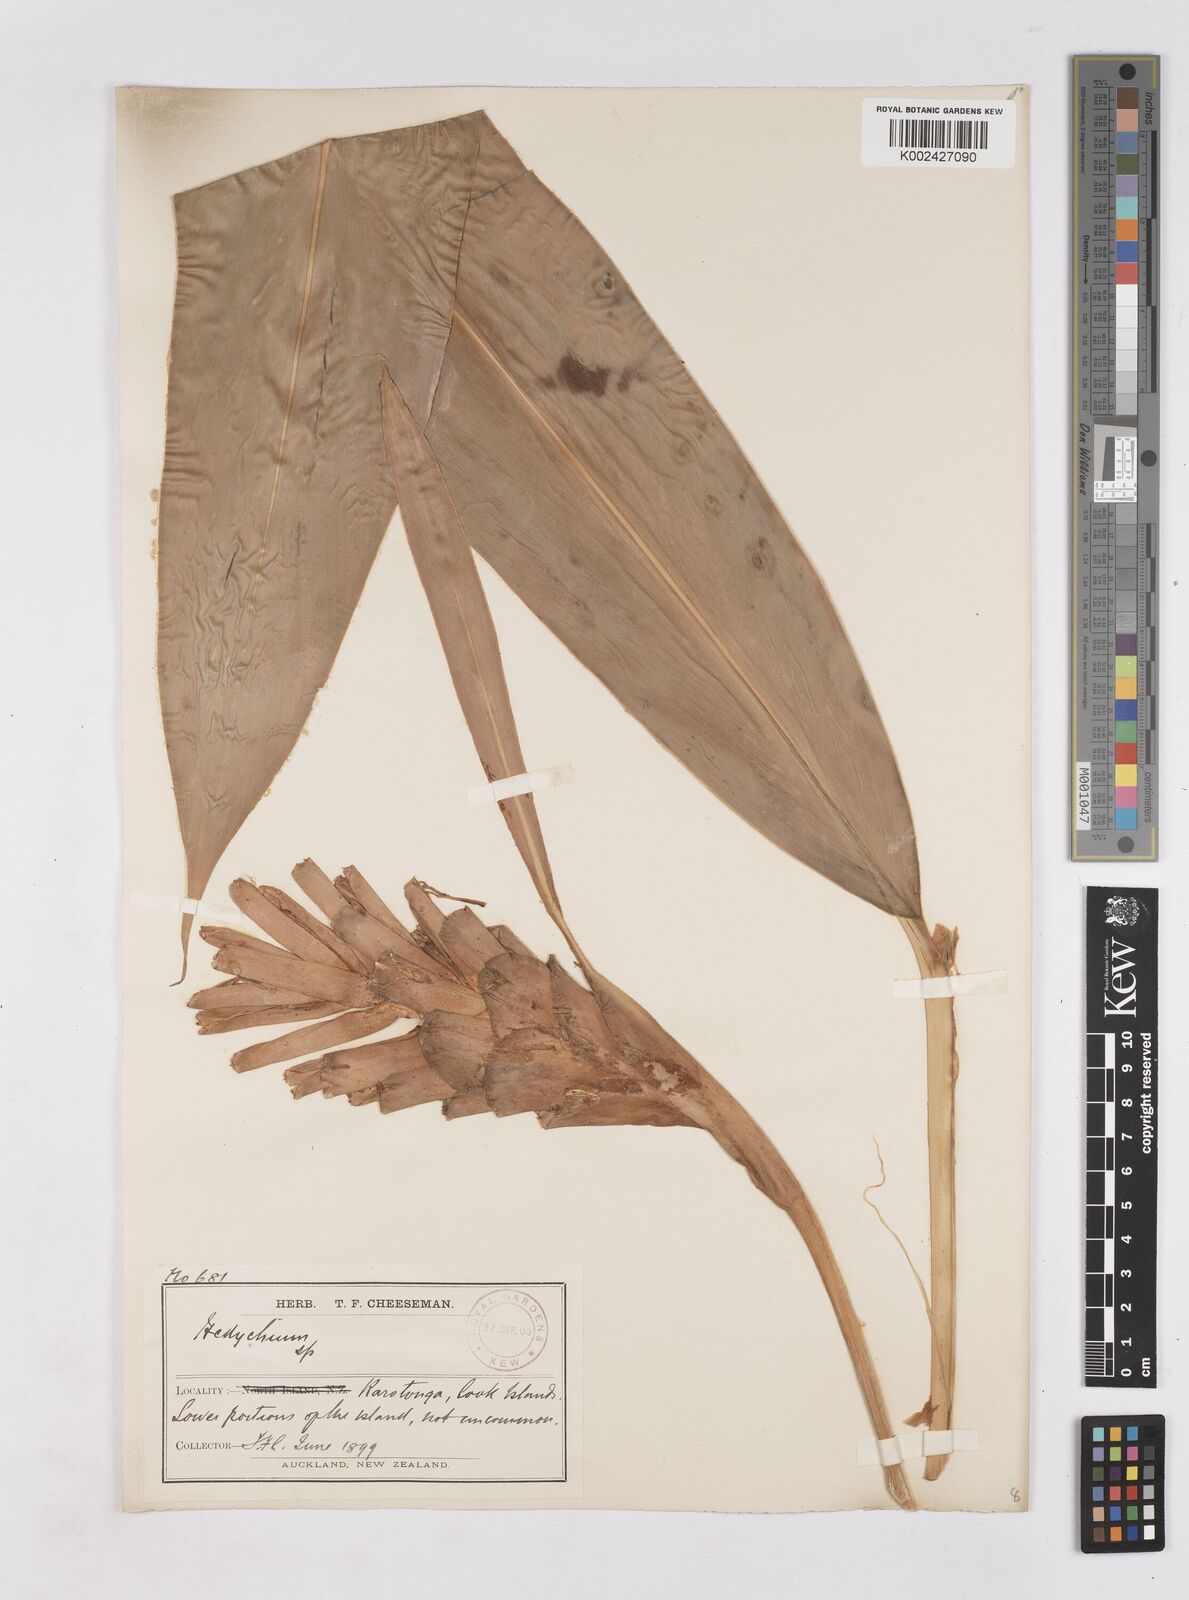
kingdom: Plantae
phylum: Tracheophyta
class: Liliopsida
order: Zingiberales
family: Zingiberaceae
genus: Hedychium
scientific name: Hedychium
